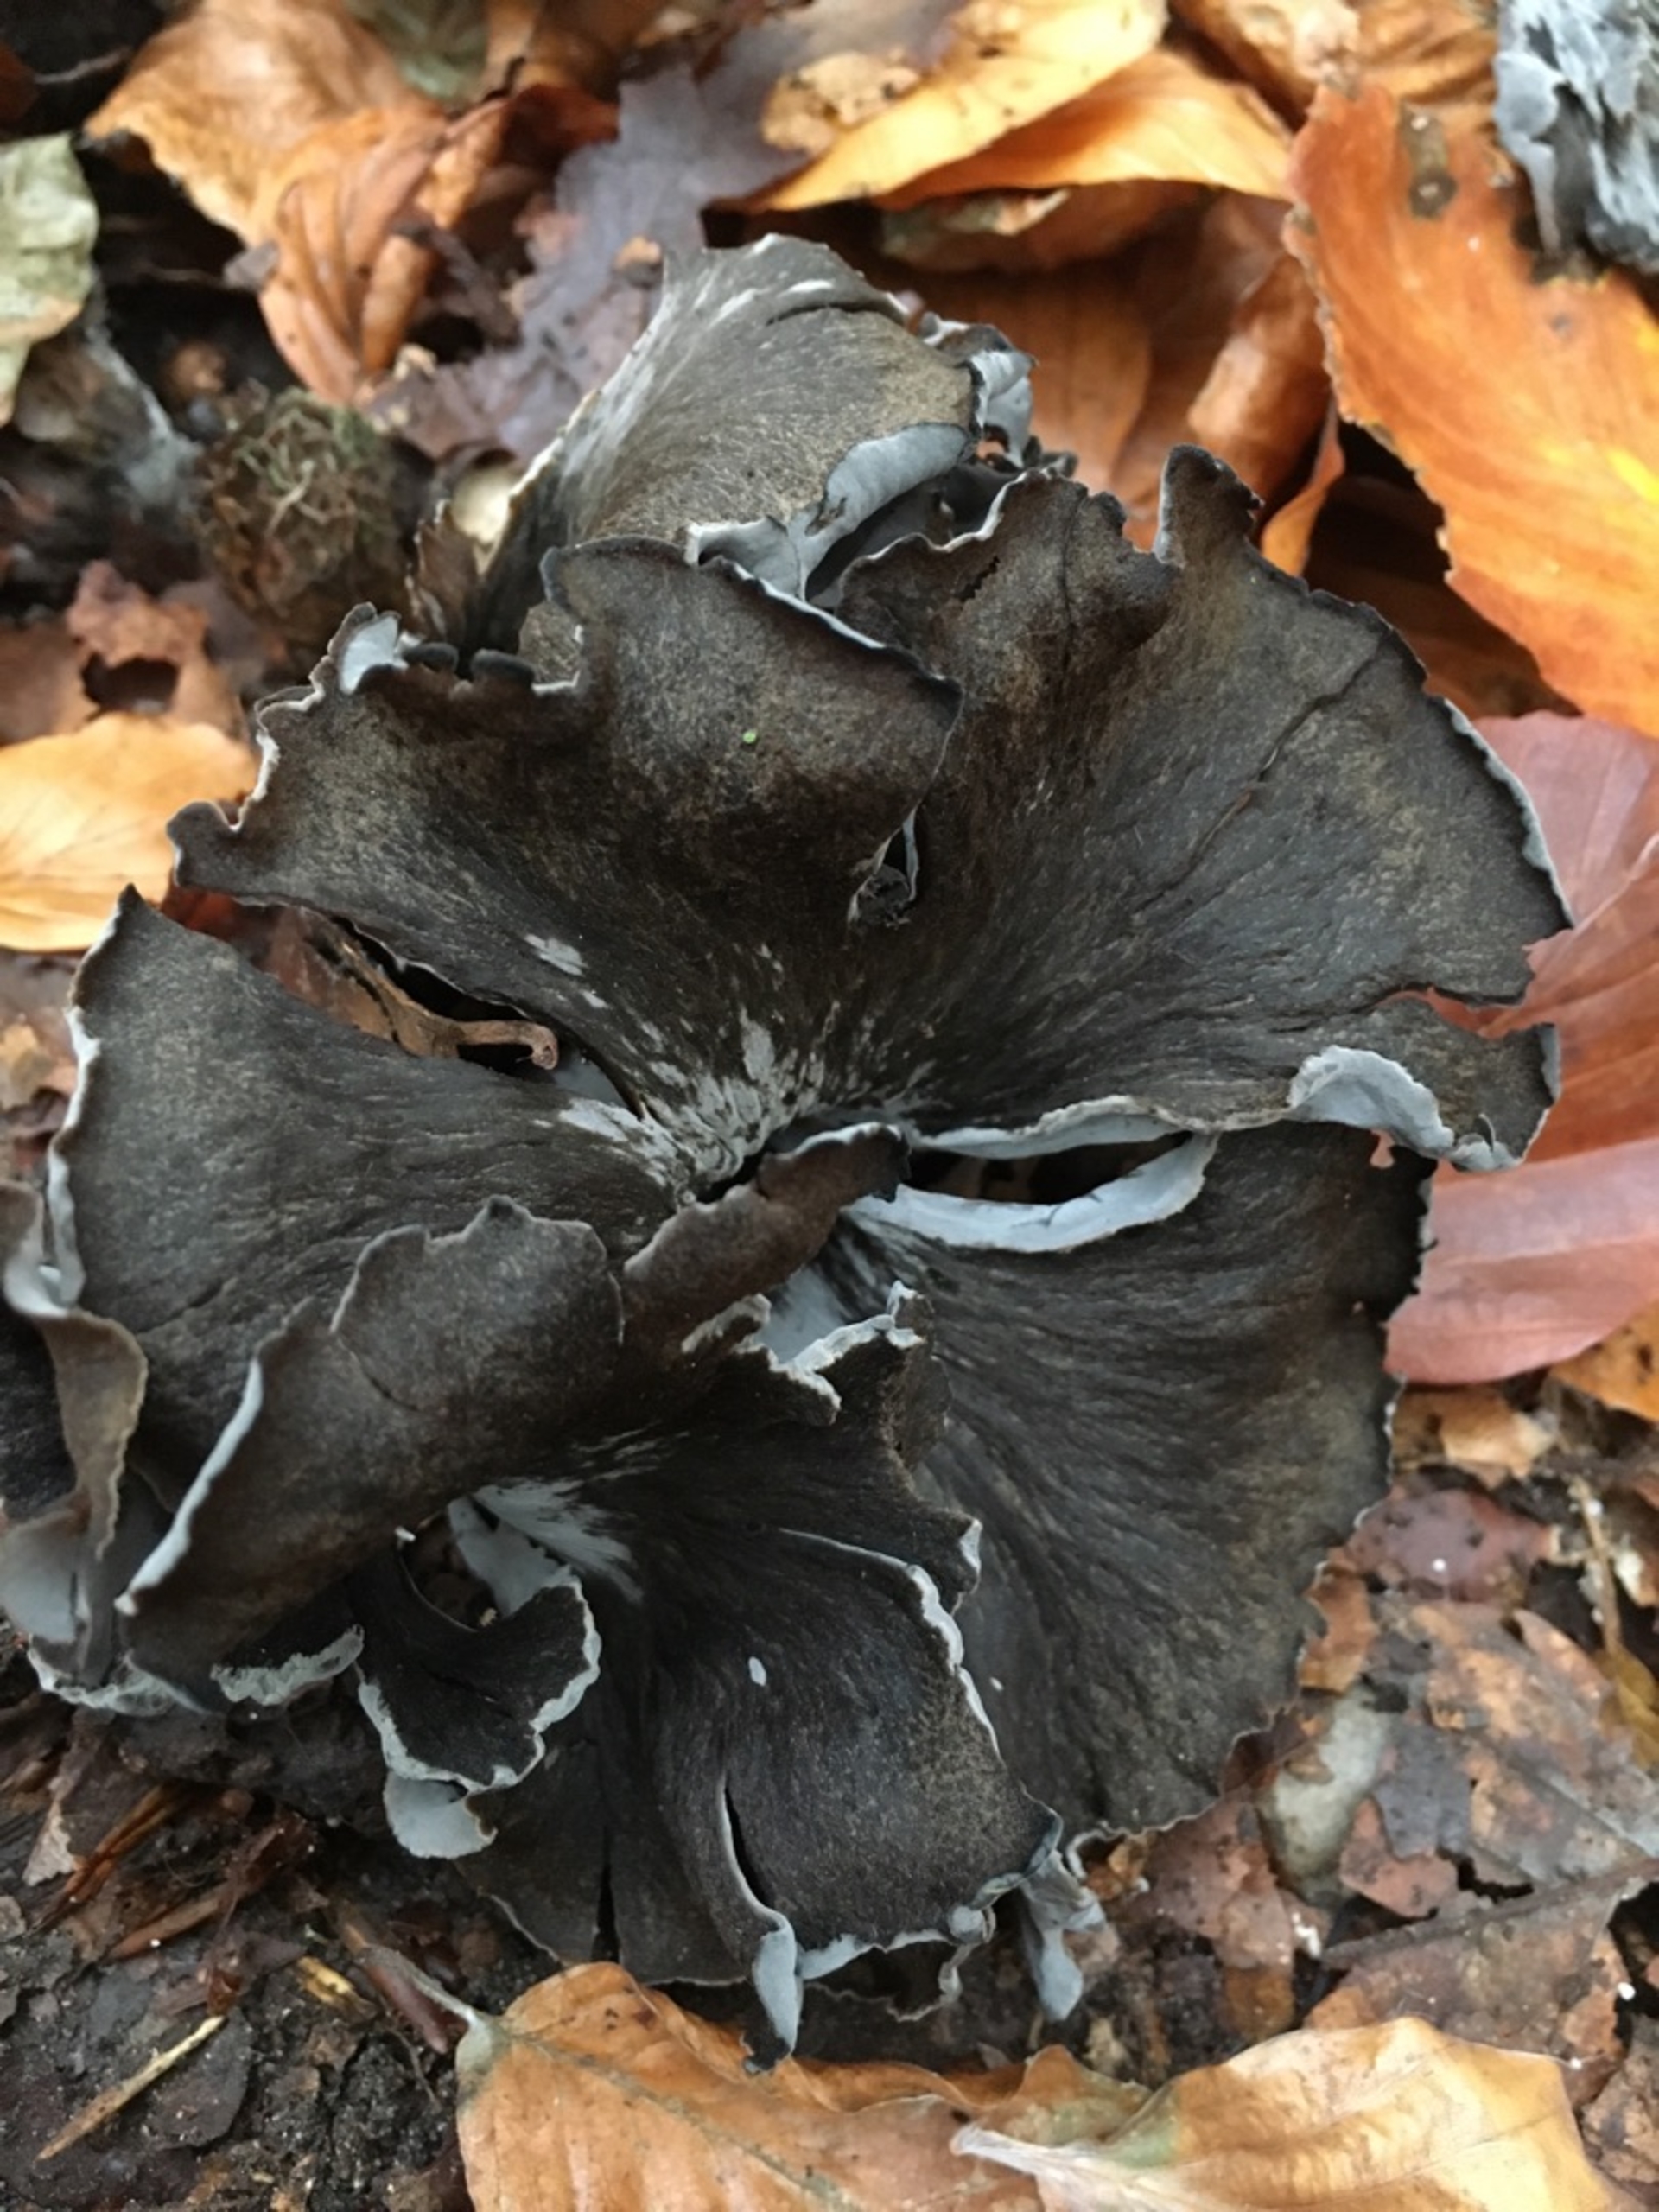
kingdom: Fungi
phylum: Basidiomycota
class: Agaricomycetes
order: Cantharellales
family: Hydnaceae
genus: Craterellus
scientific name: Craterellus cornucopioides
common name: Trompetsvamp
